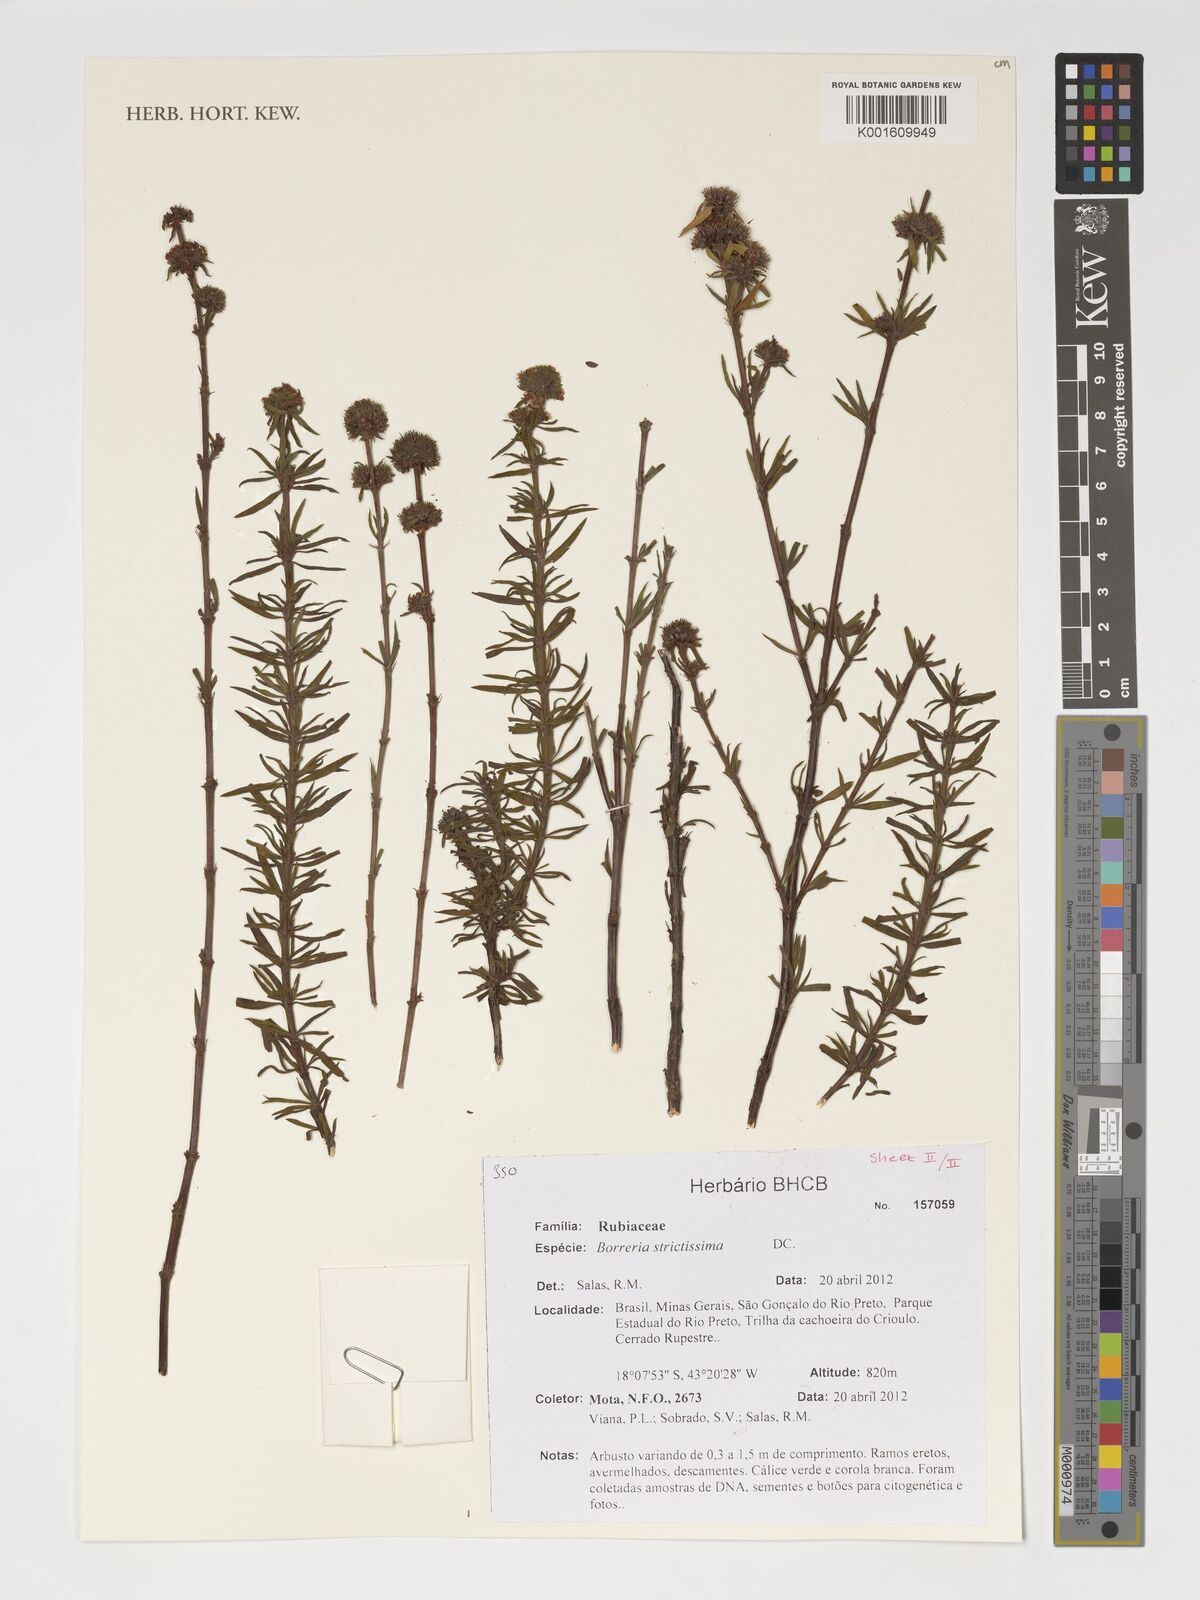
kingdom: Plantae
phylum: Tracheophyta
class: Magnoliopsida
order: Gentianales
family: Rubiaceae
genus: Spermacoce
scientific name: Spermacoce capitata
